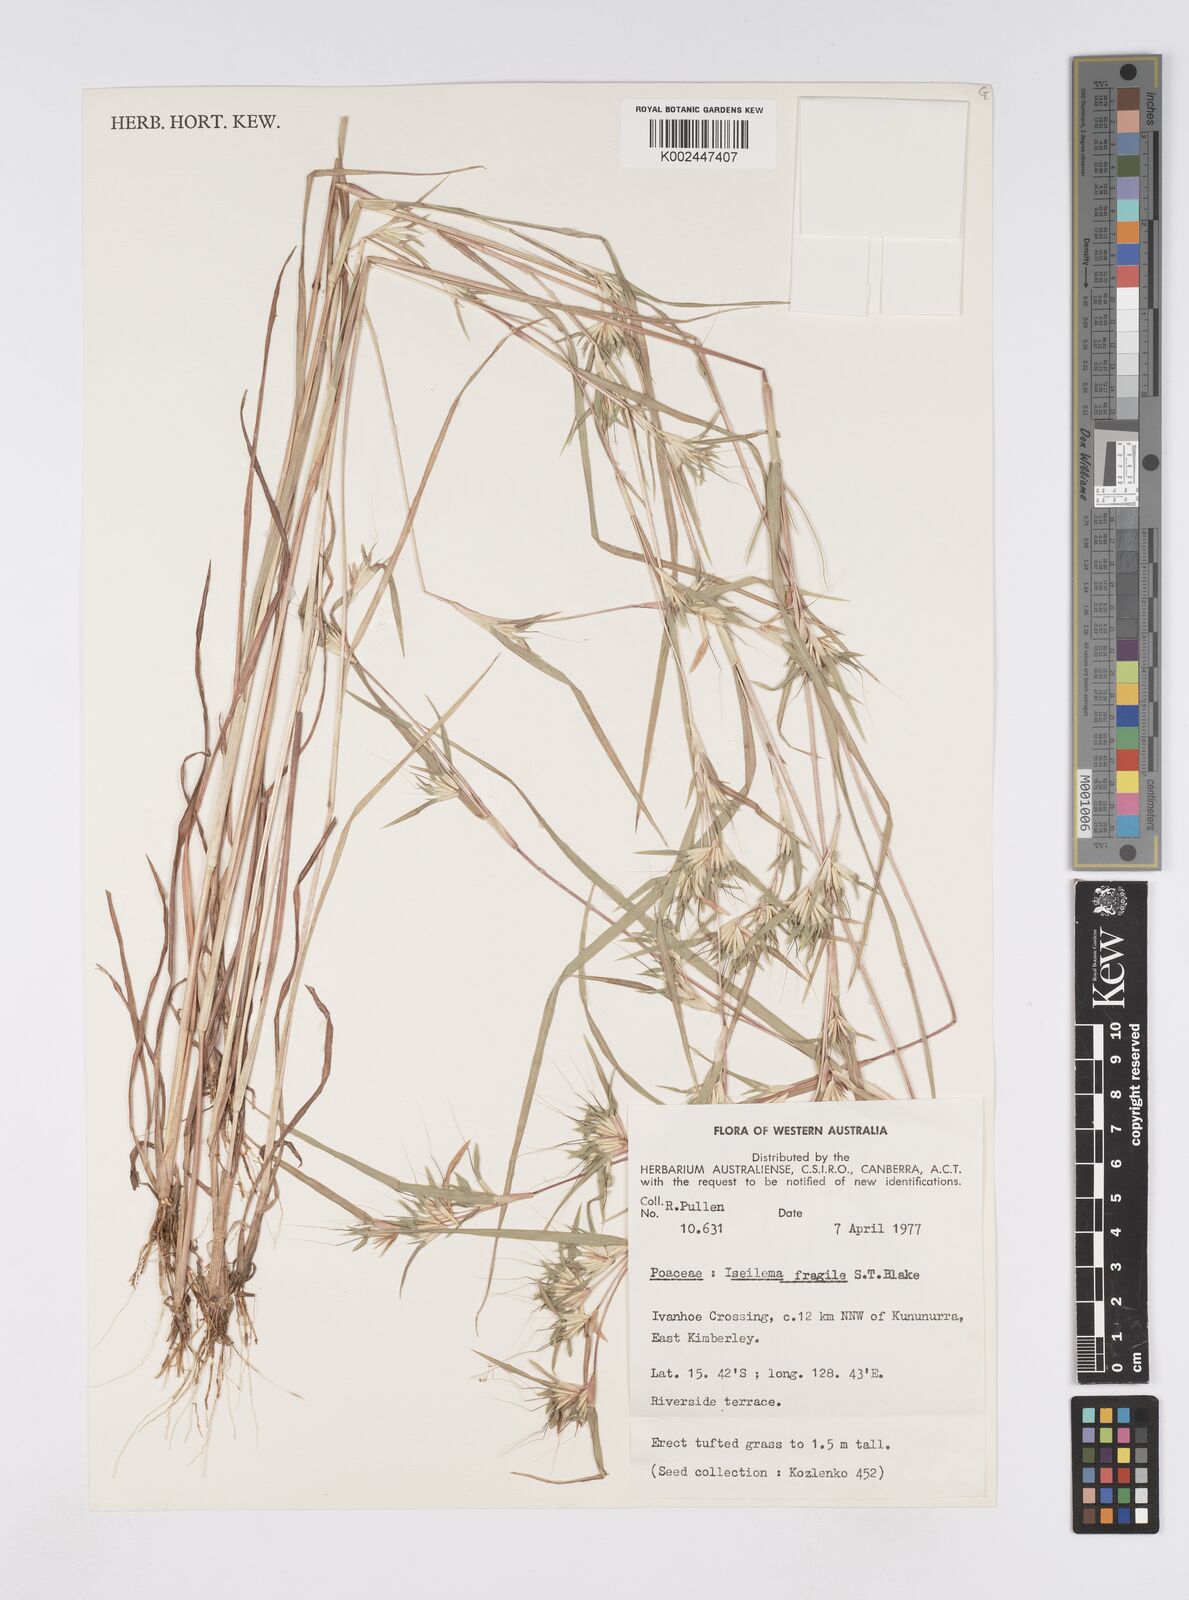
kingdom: Plantae
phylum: Tracheophyta
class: Liliopsida
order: Poales
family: Poaceae
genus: Iseilema
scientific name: Iseilema fragile
